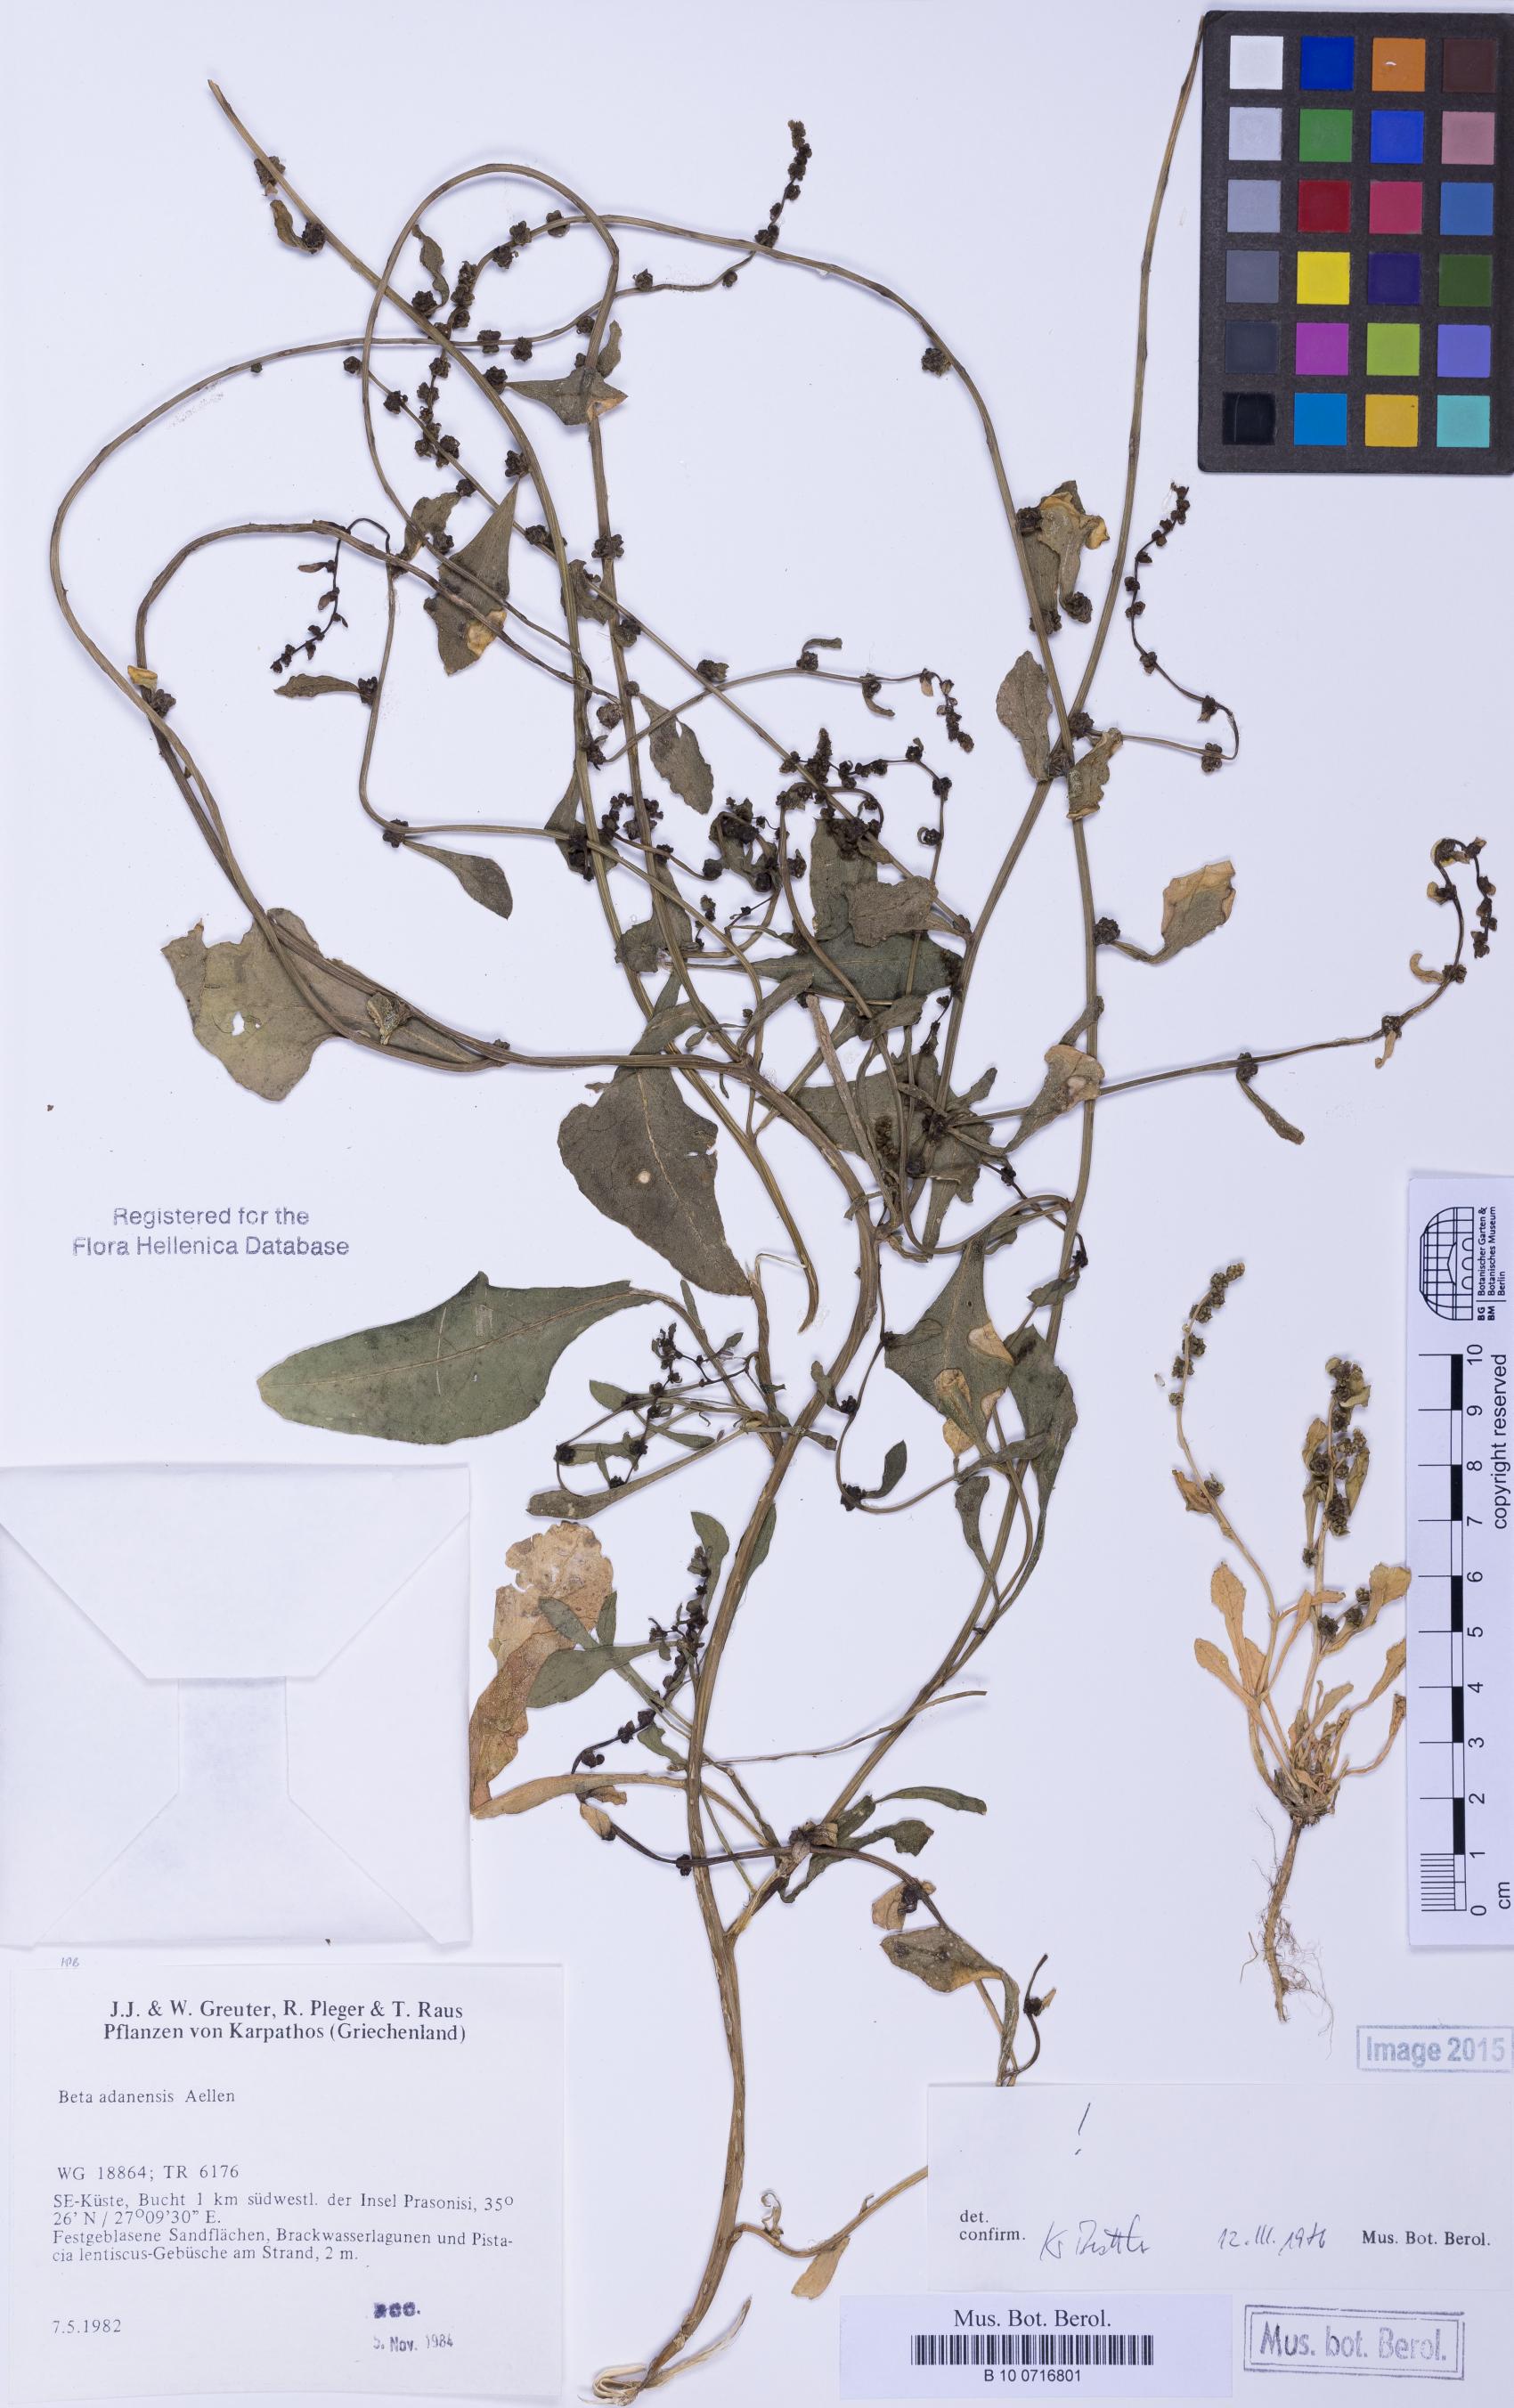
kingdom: Plantae
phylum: Tracheophyta
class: Magnoliopsida
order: Caryophyllales
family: Amaranthaceae
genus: Beta
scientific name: Beta adanensis
